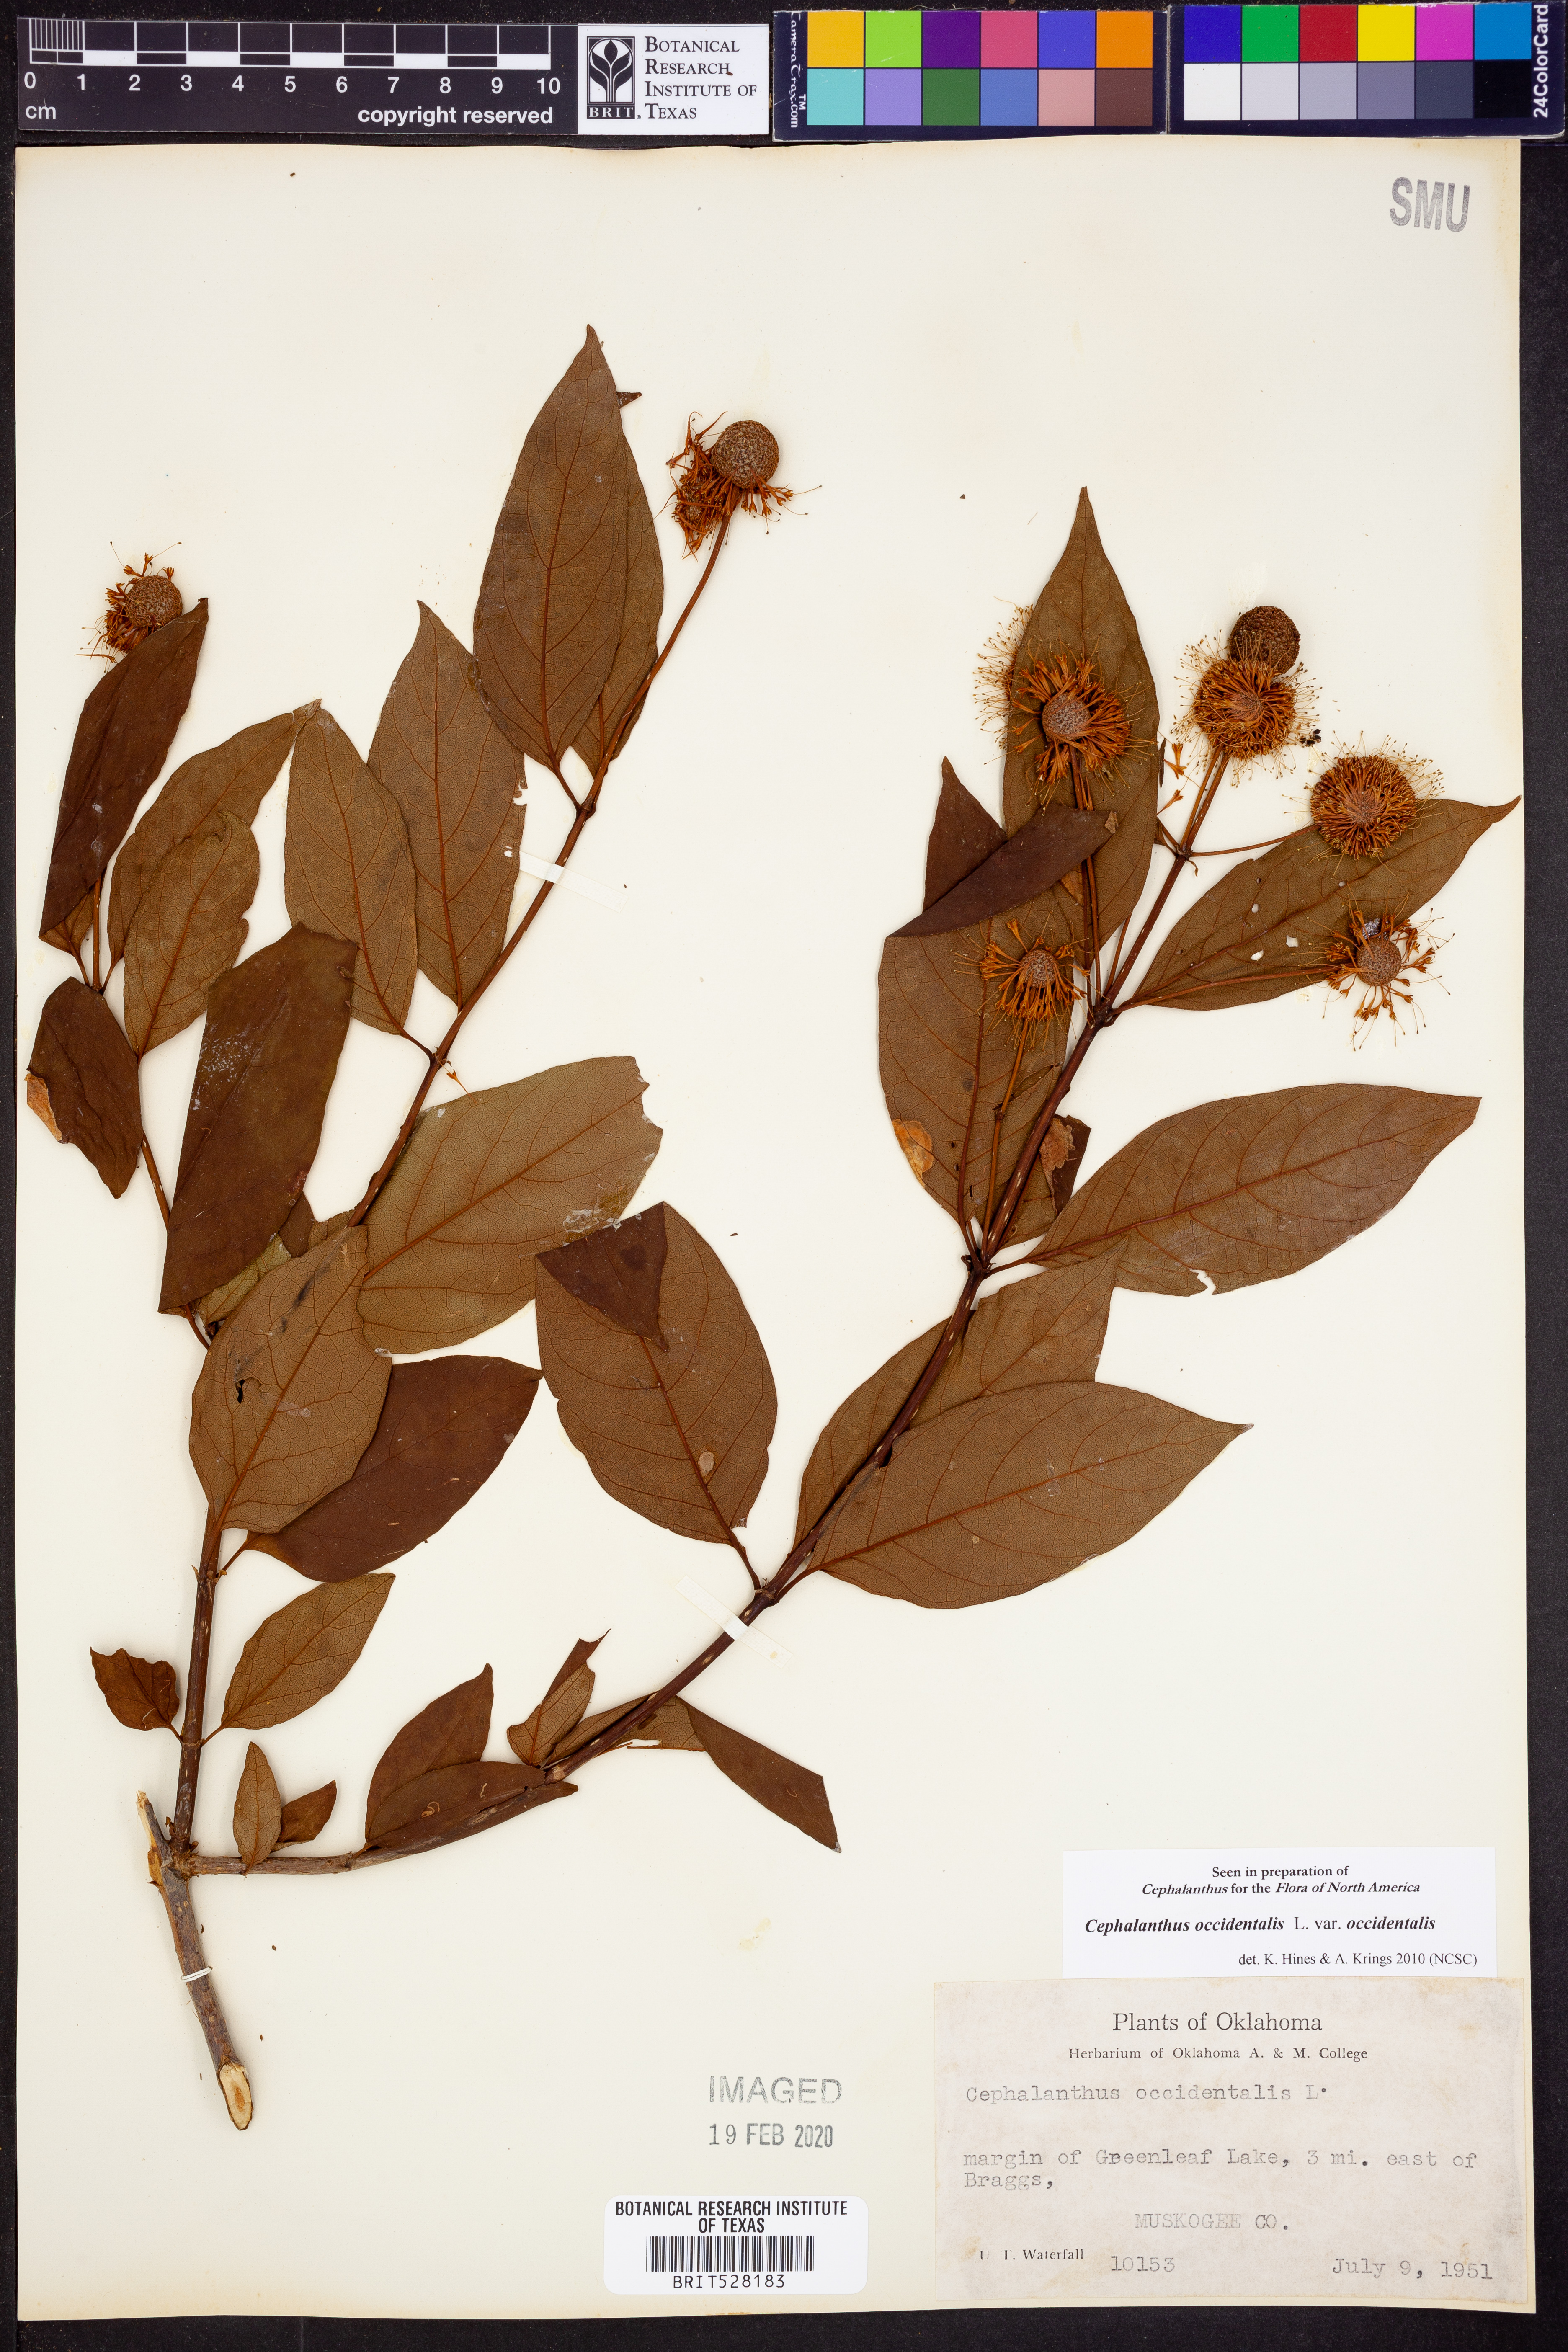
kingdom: Plantae
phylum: Tracheophyta
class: Magnoliopsida
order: Gentianales
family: Rubiaceae
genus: Cephalanthus
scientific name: Cephalanthus occidentalis
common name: Button-willow
